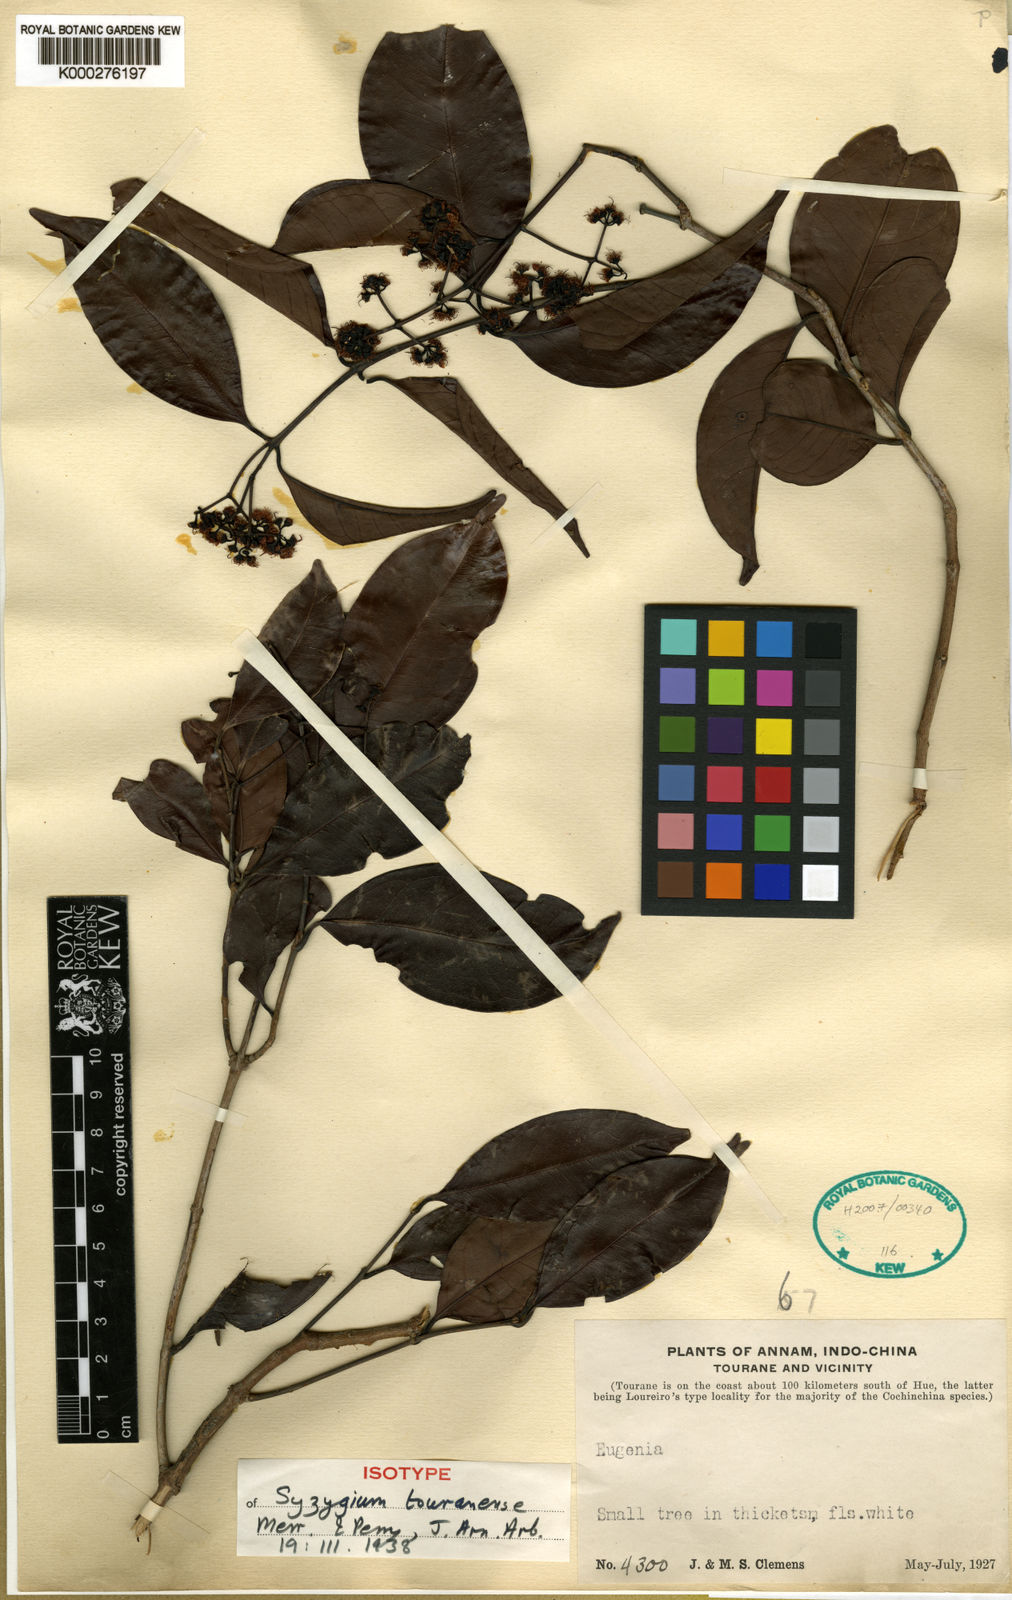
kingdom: Plantae
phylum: Tracheophyta
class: Magnoliopsida
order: Myrtales
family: Myrtaceae
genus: Syzygium
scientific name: Syzygium touranense
